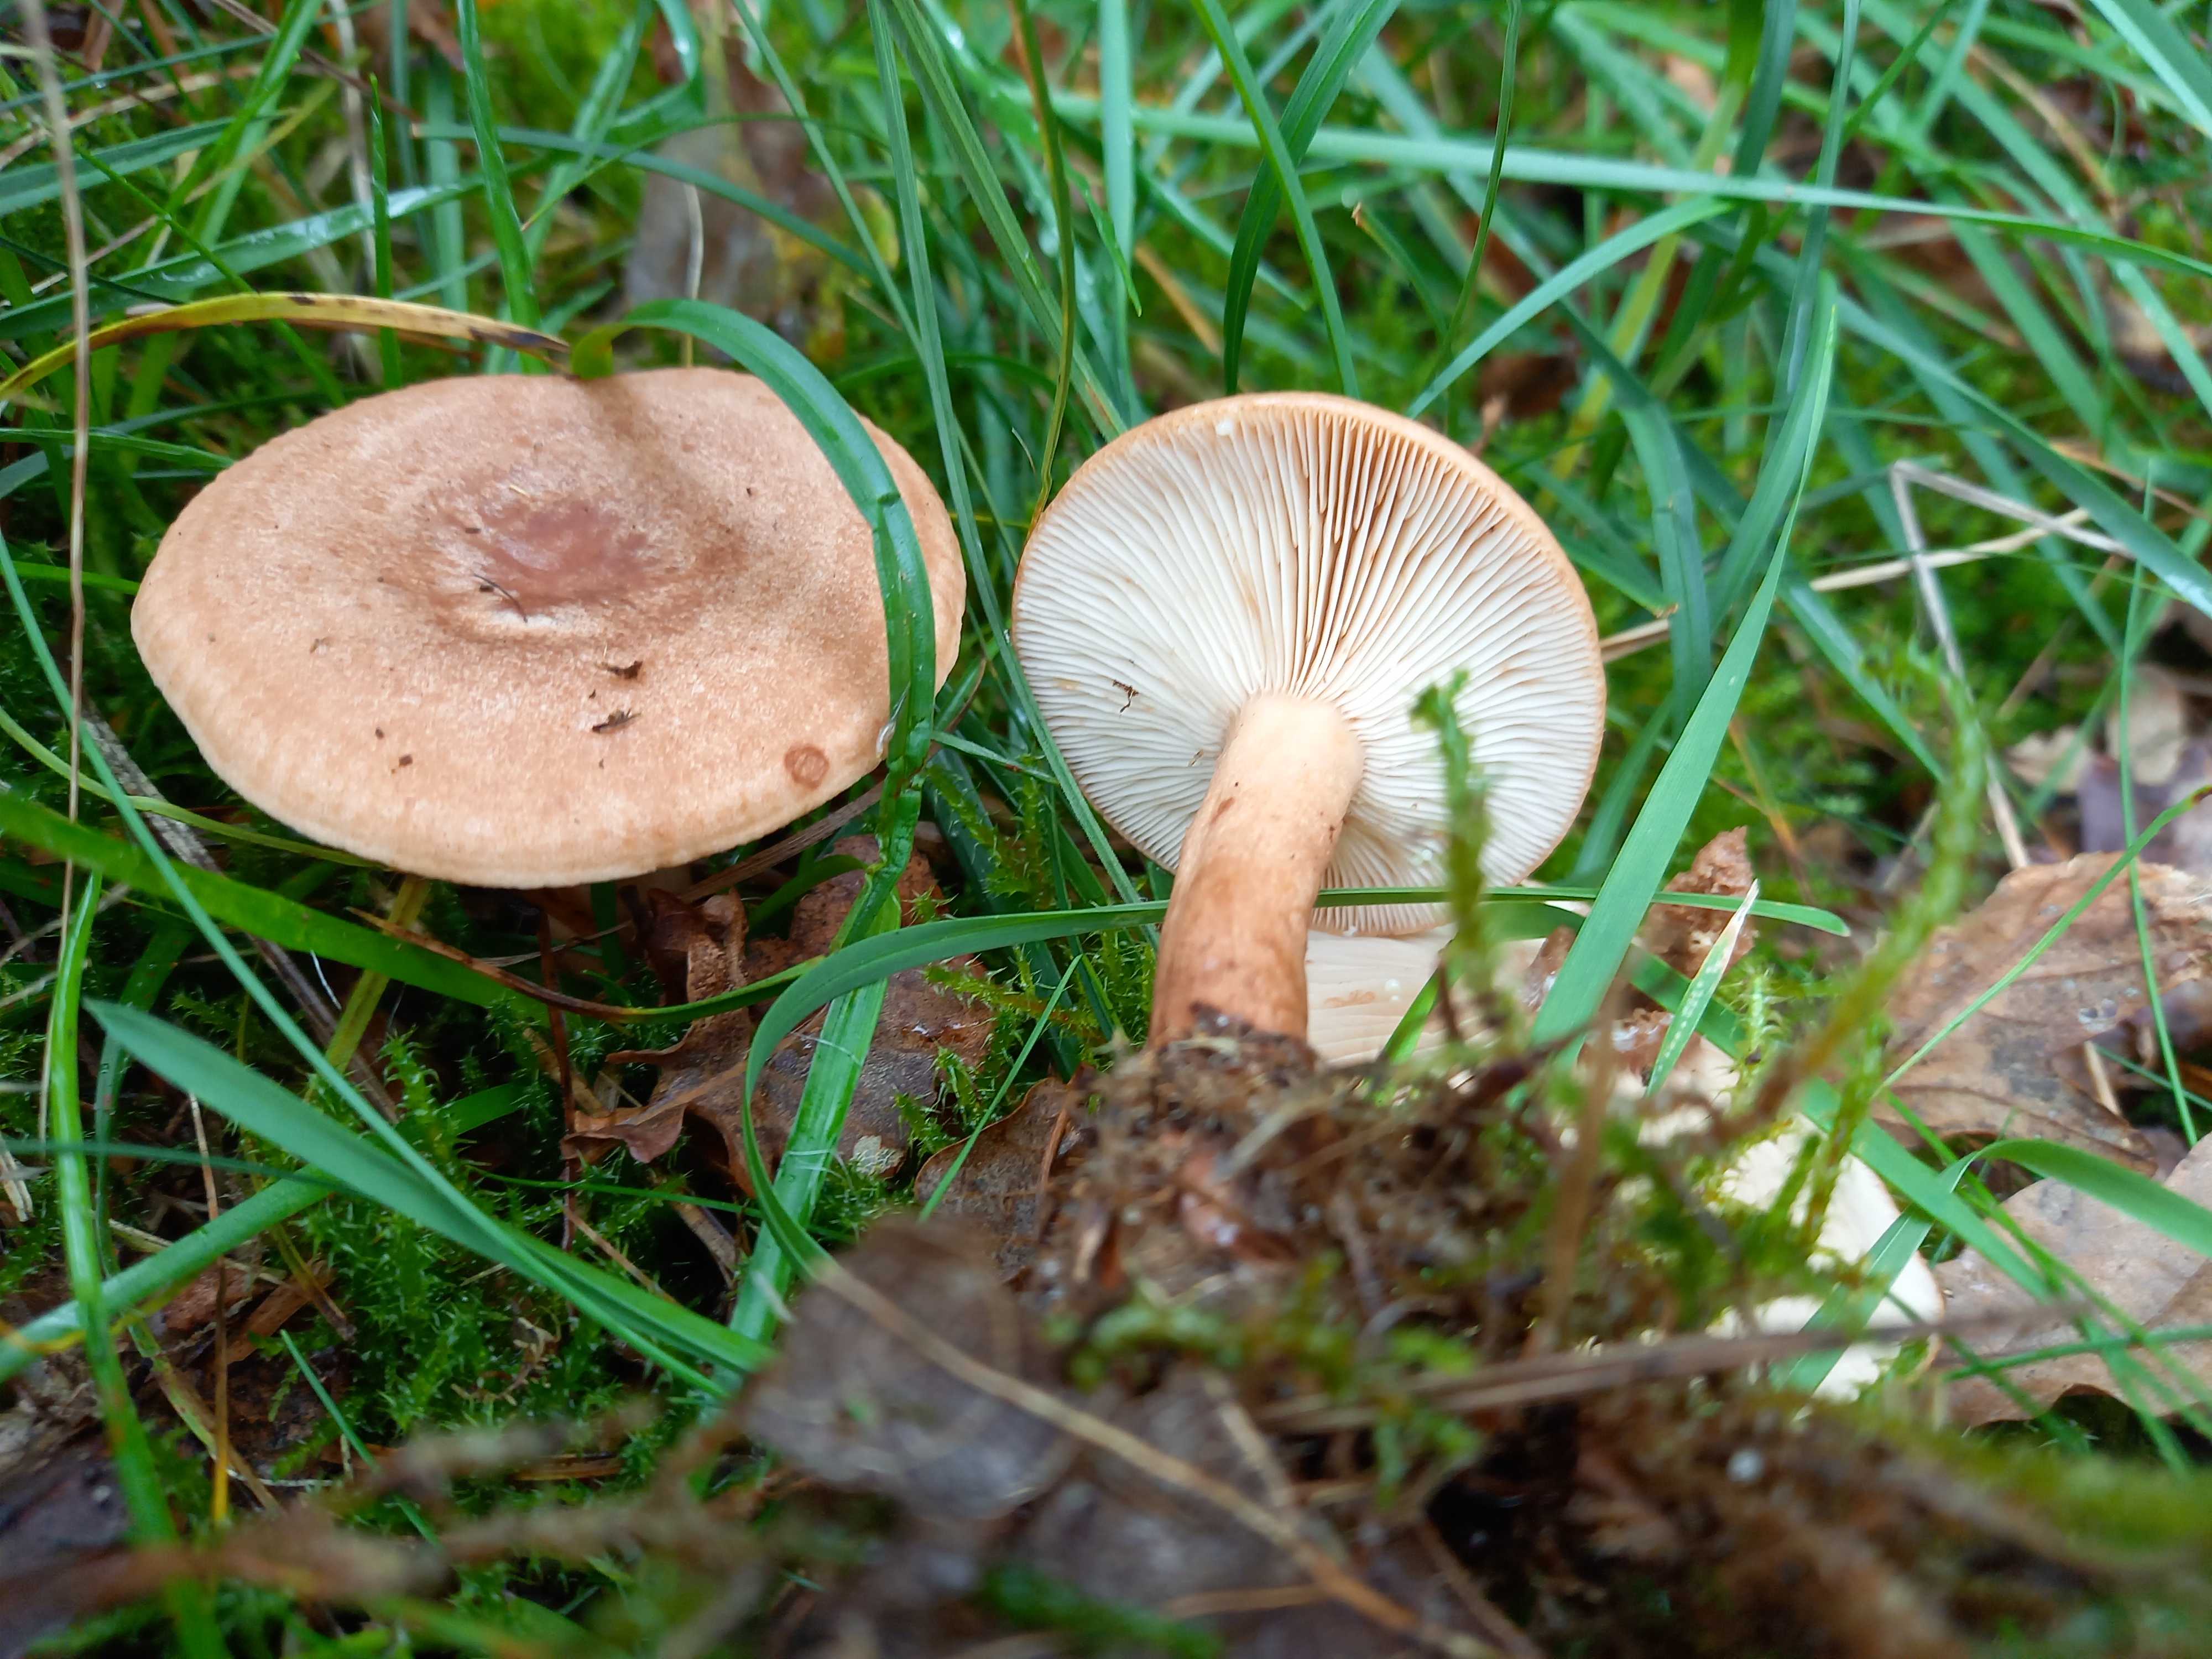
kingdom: Fungi
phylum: Basidiomycota
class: Agaricomycetes
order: Russulales
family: Russulaceae
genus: Lactarius
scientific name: Lactarius quietus
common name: ege-mælkehat
